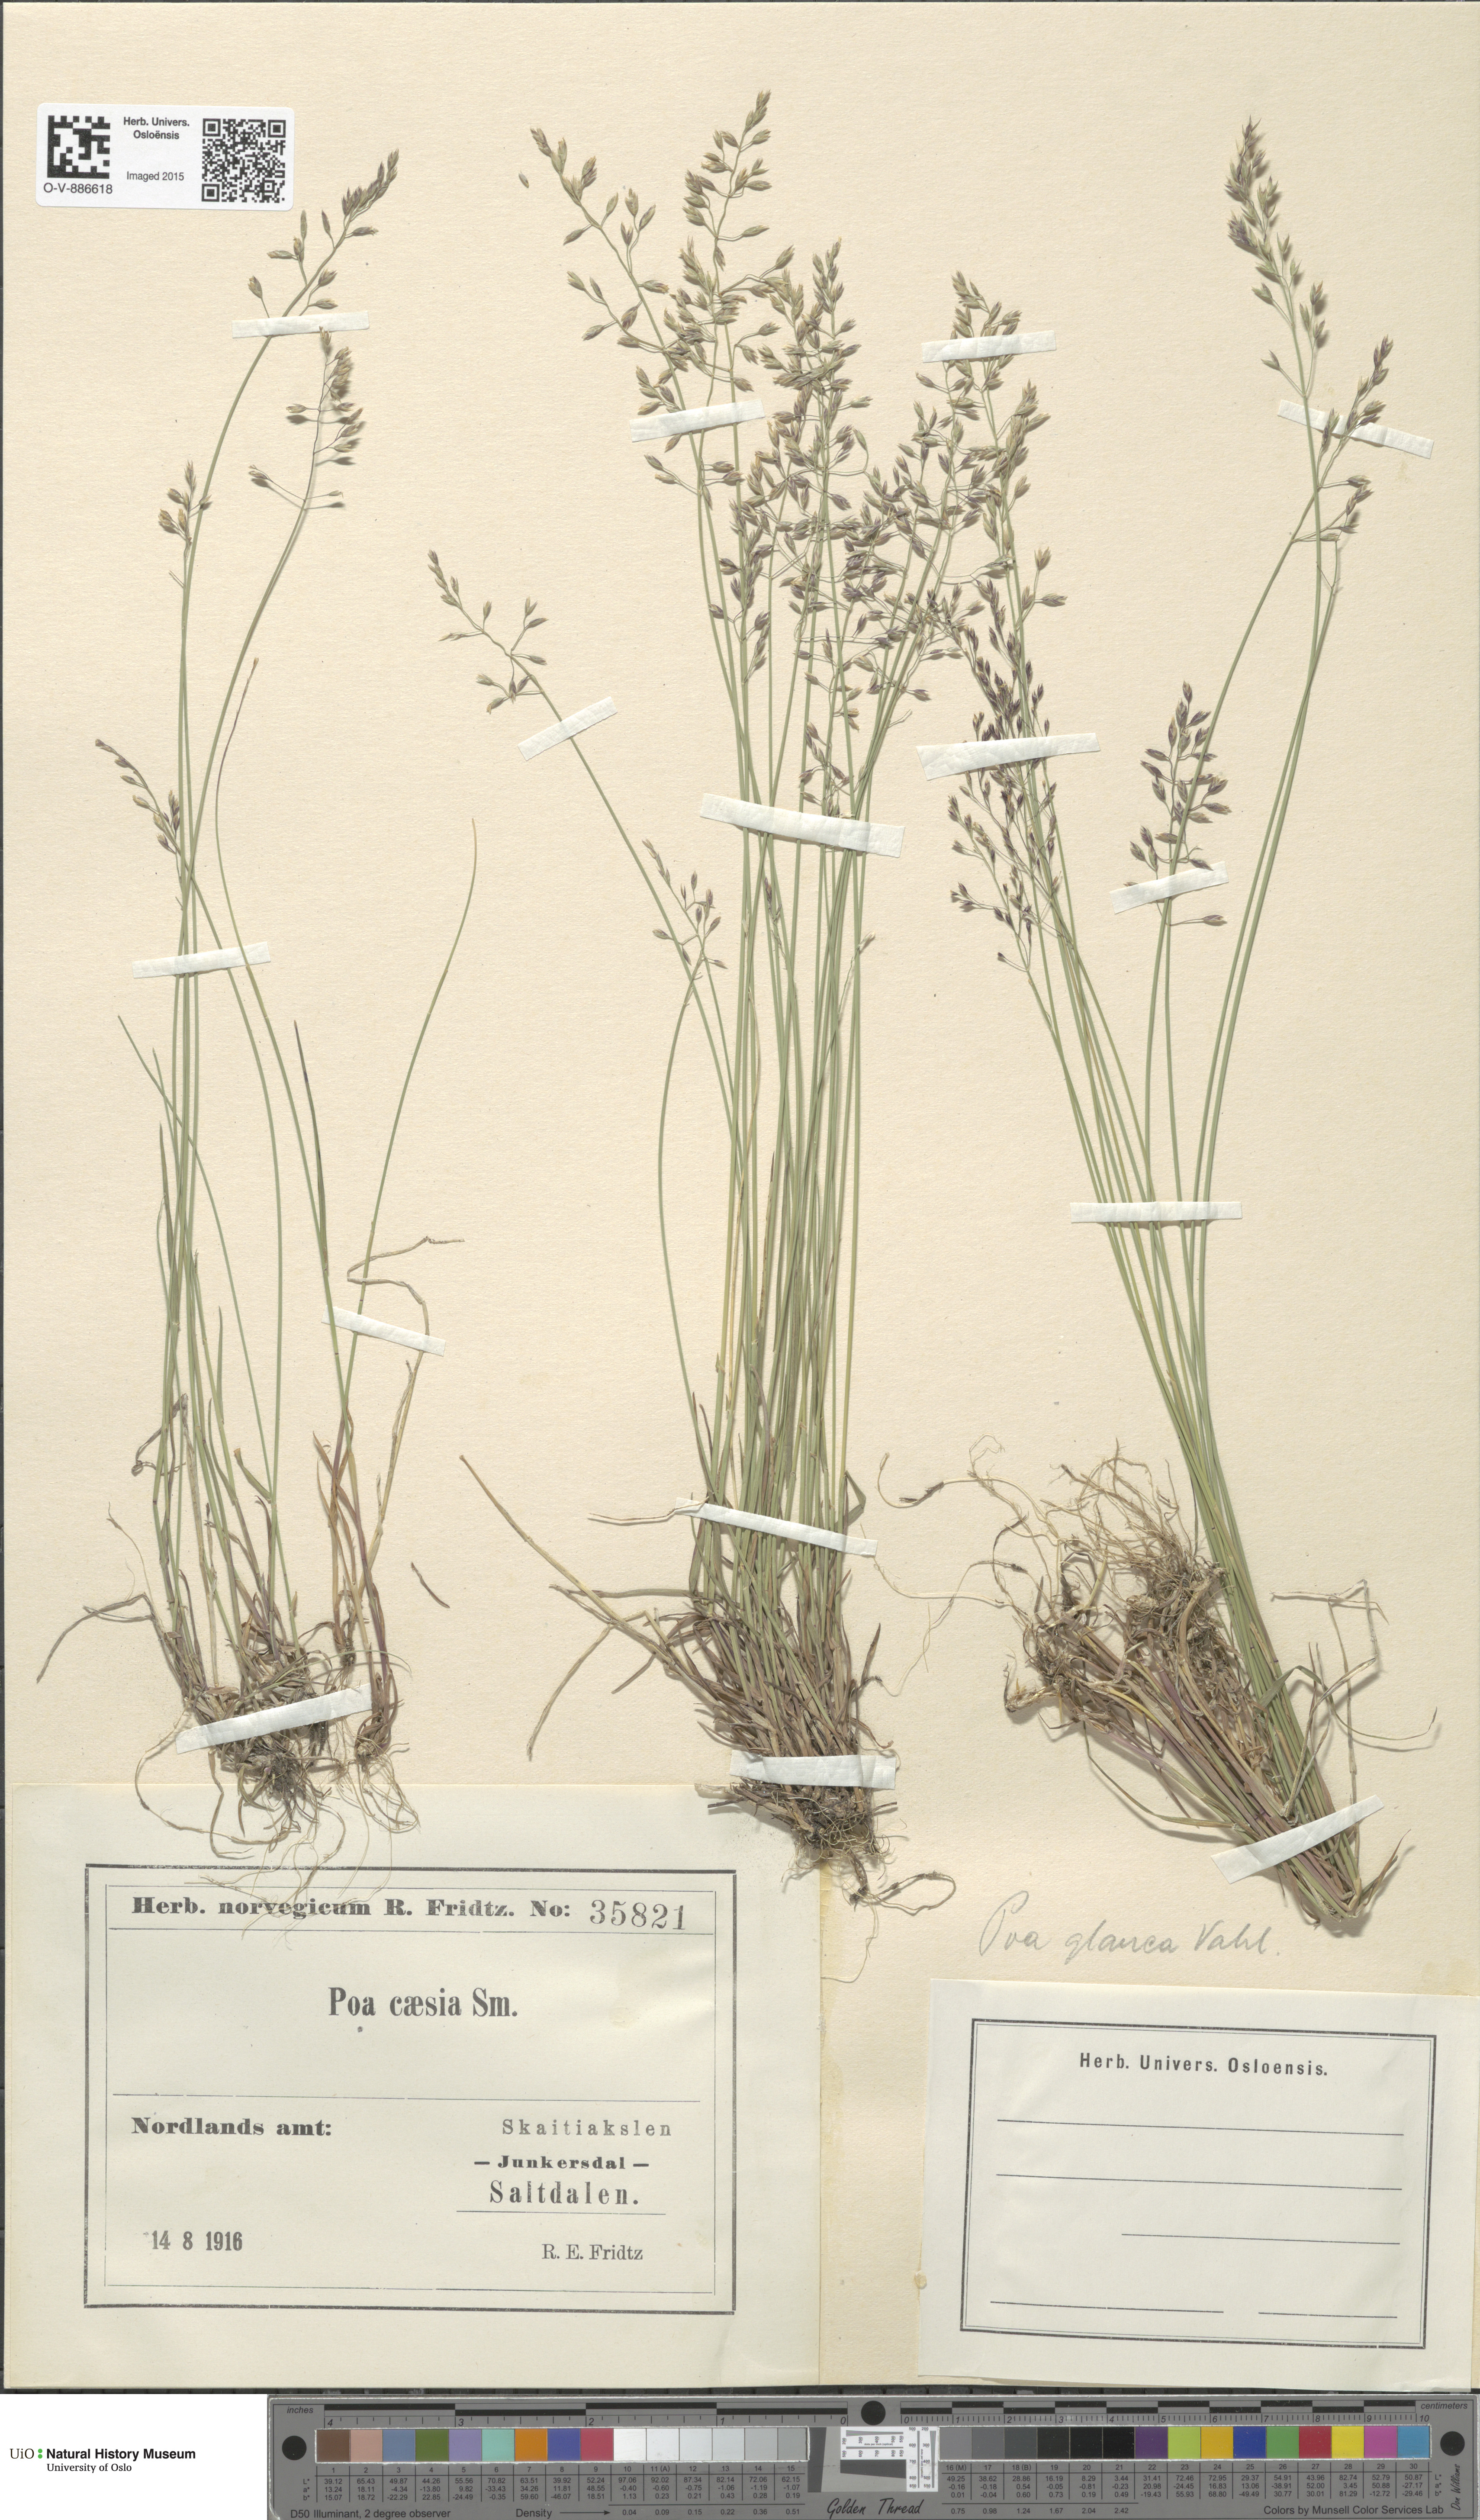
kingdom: Plantae
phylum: Tracheophyta
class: Liliopsida
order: Poales
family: Poaceae
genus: Poa
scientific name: Poa glauca
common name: Glaucous bluegrass
